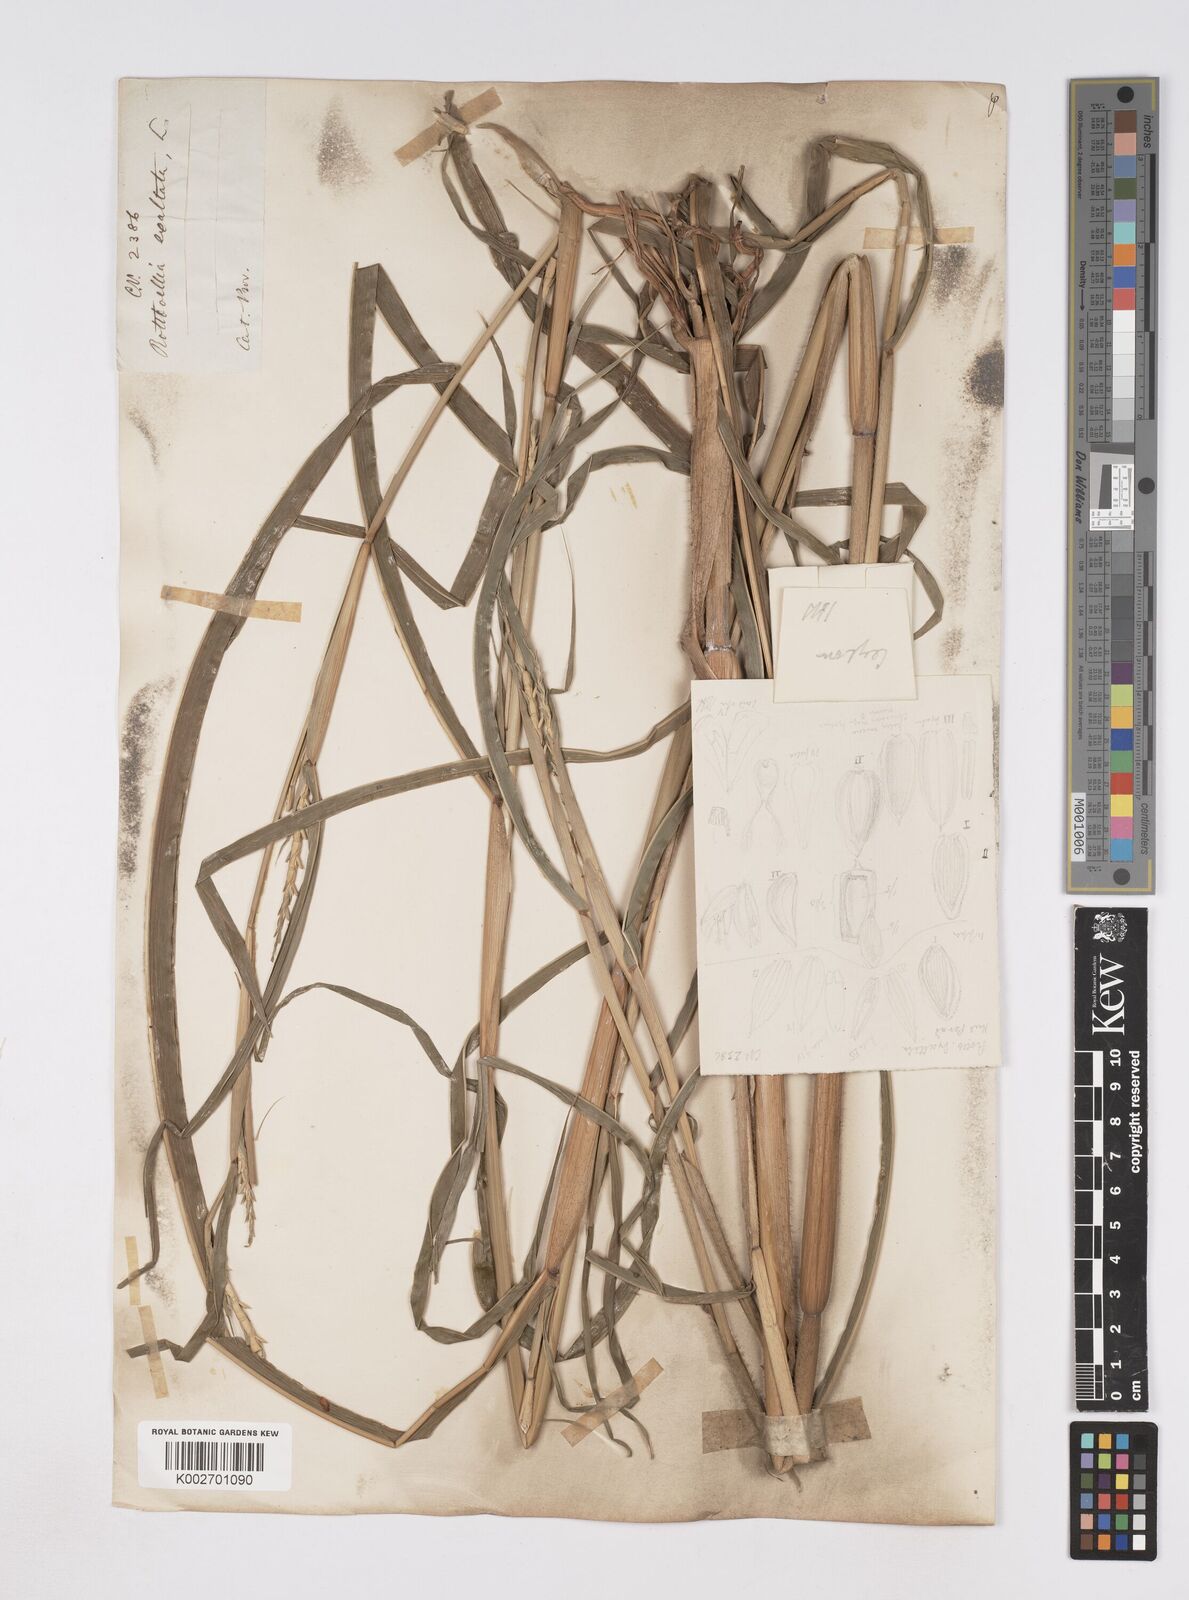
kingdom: Plantae
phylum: Tracheophyta
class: Liliopsida
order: Poales
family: Poaceae
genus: Ophiuros
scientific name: Ophiuros exaltatus
